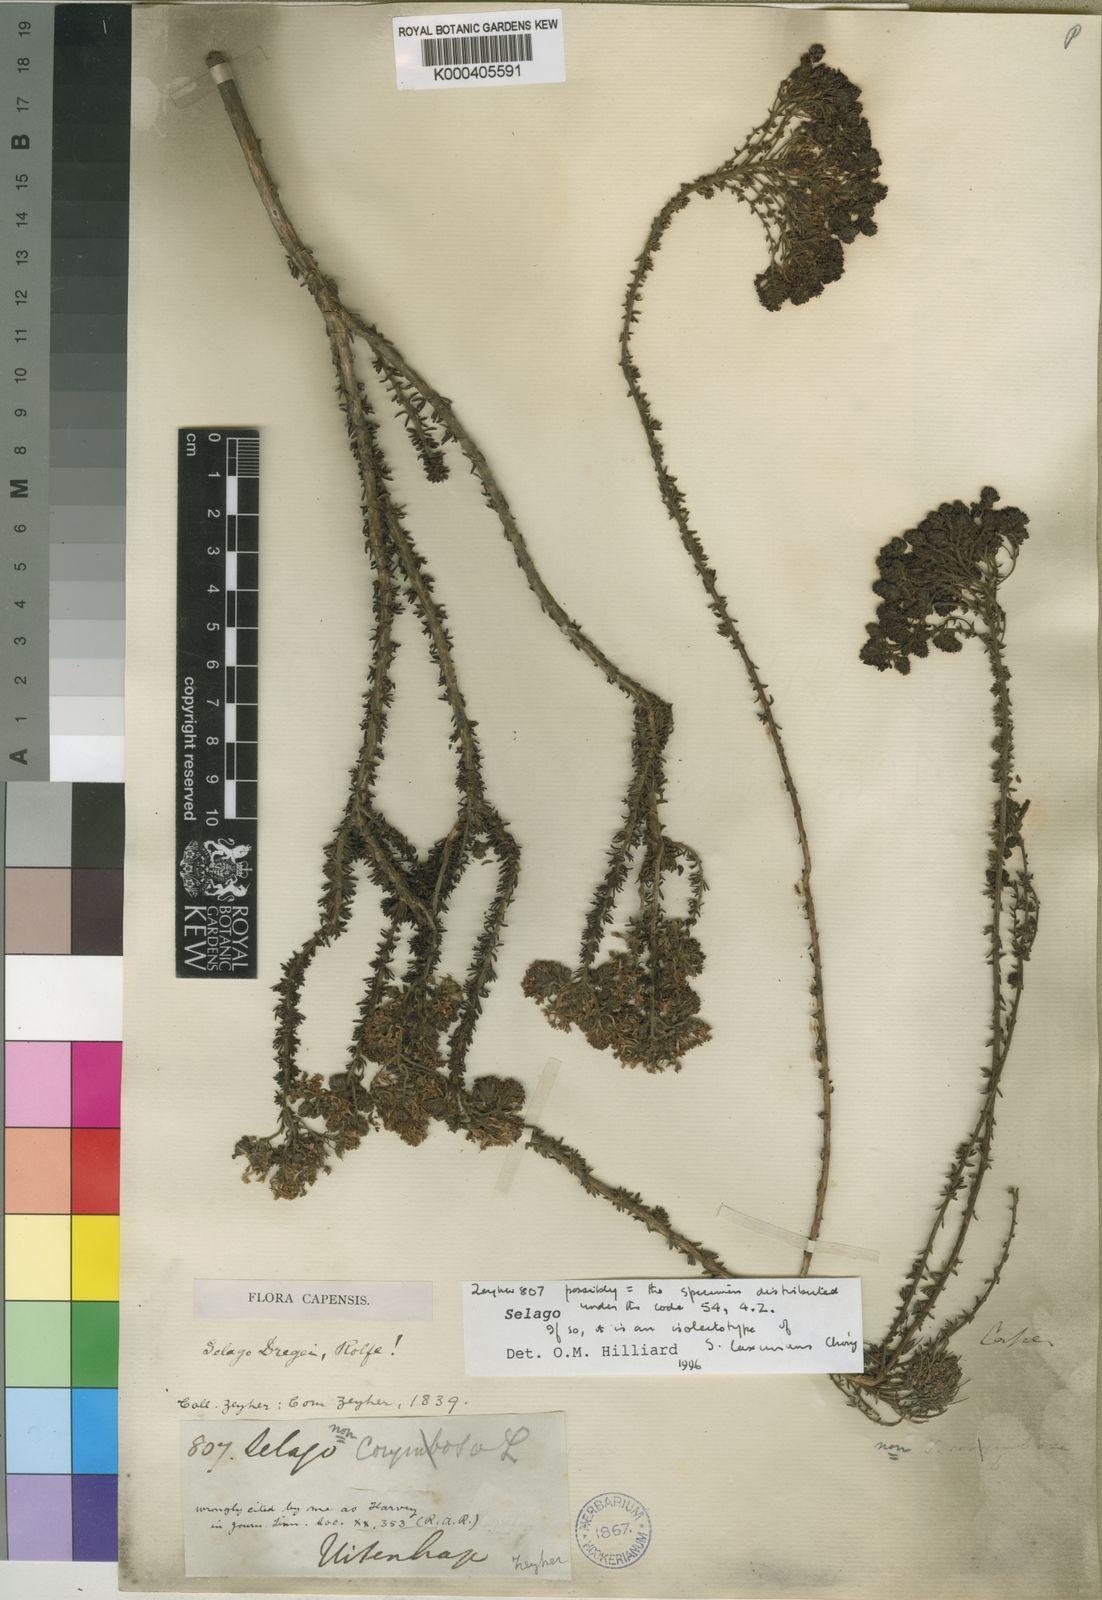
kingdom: Plantae
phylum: Tracheophyta
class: Magnoliopsida
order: Lamiales
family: Scrophulariaceae
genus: Selago
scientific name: Selago luxurians
